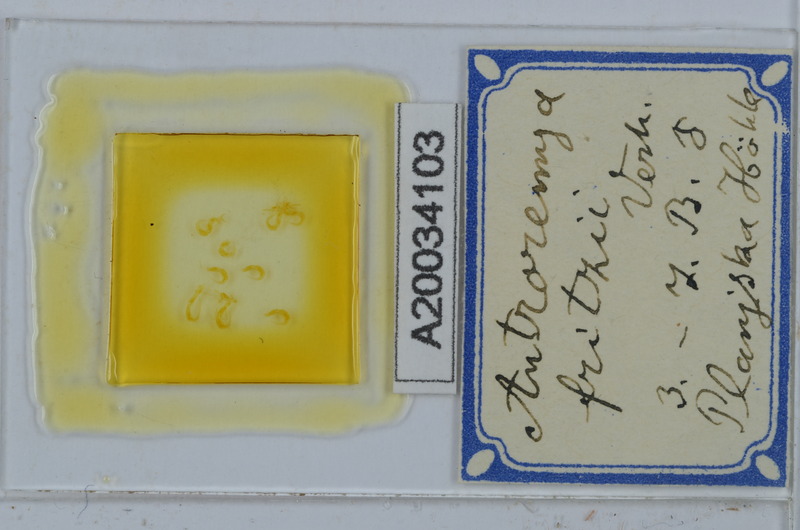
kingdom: Animalia
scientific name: Animalia
